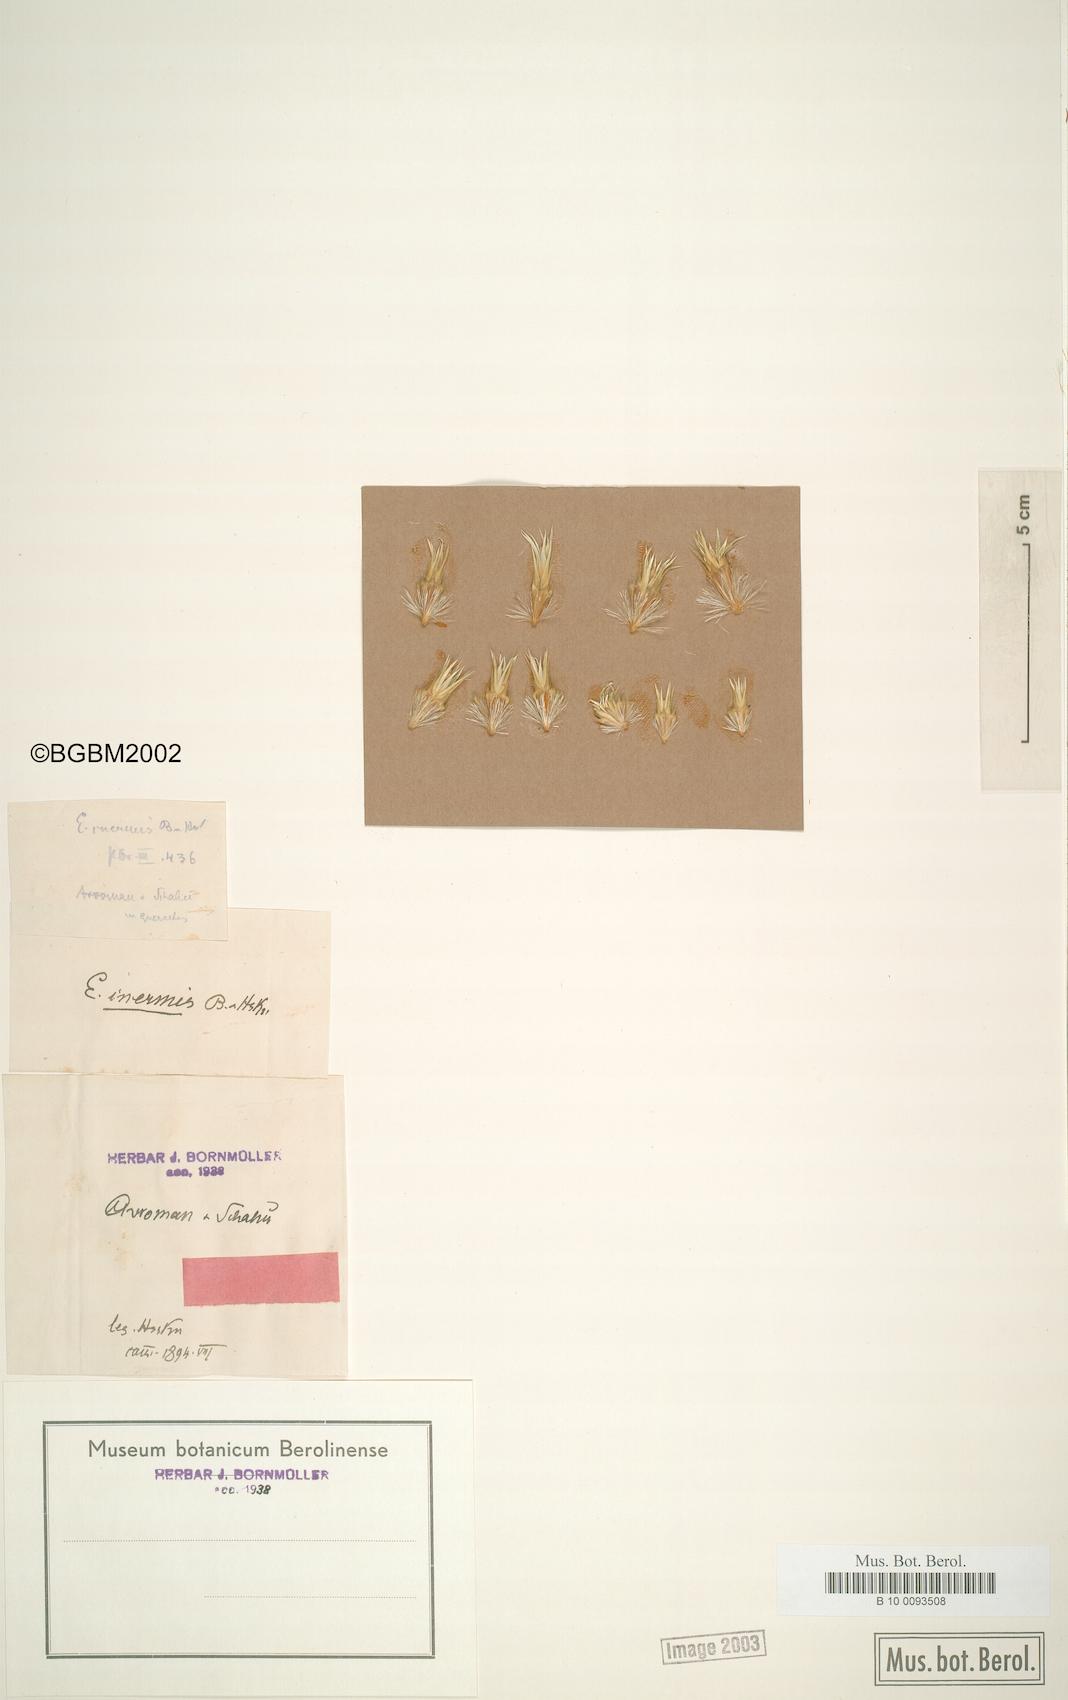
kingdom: Plantae
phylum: Tracheophyta
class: Magnoliopsida
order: Asterales
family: Asteraceae
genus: Echinops
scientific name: Echinops inermis
